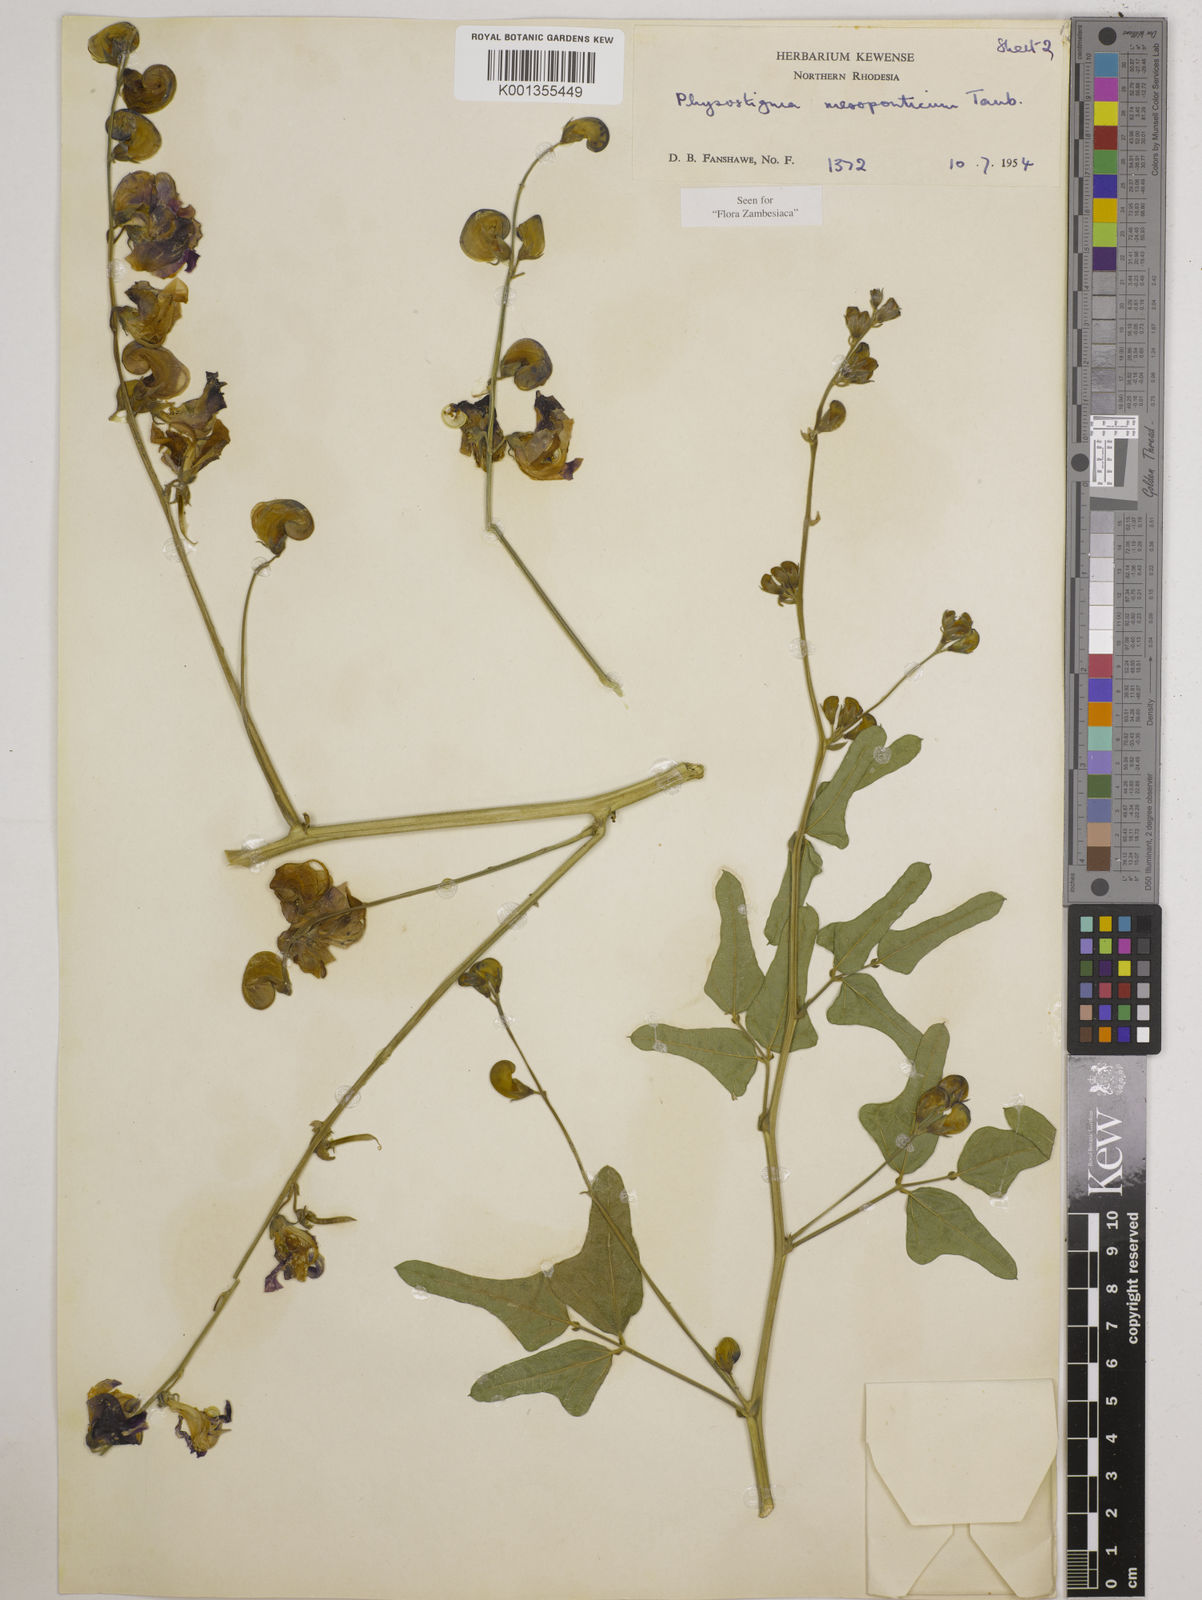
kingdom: Plantae
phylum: Tracheophyta
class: Magnoliopsida
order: Fabales
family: Fabaceae
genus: Physostigma
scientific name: Physostigma mesoponticum
